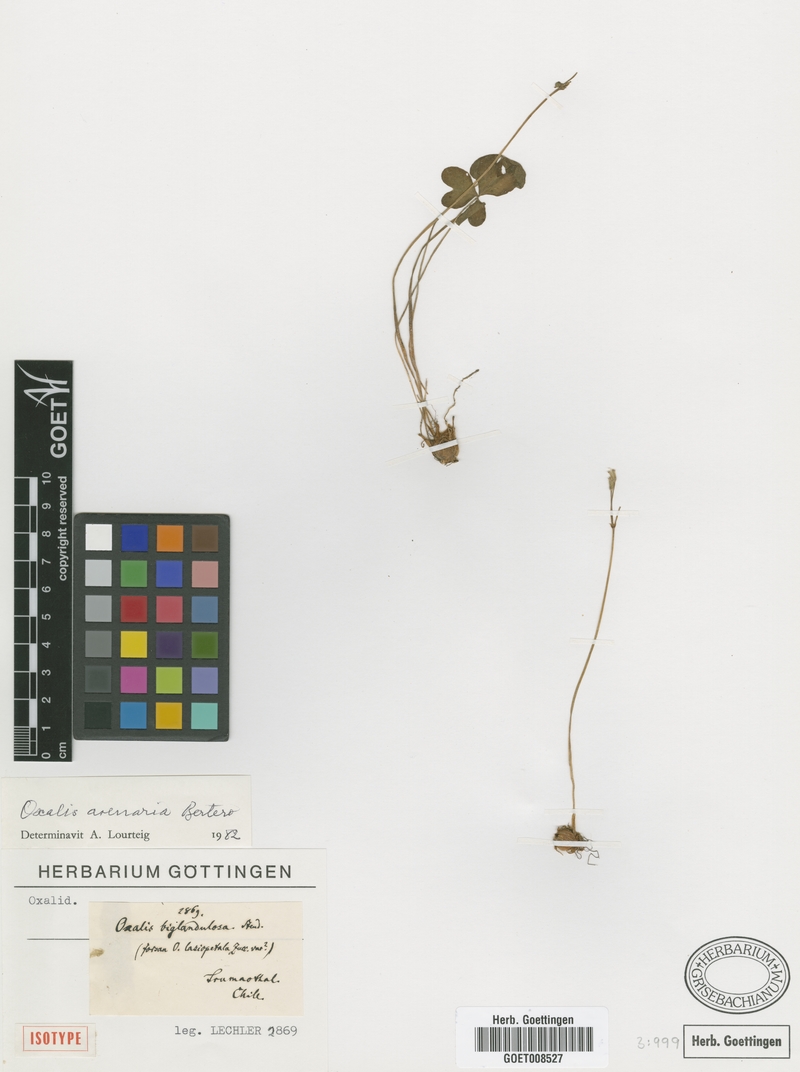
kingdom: Plantae
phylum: Tracheophyta
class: Magnoliopsida
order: Oxalidales
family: Oxalidaceae
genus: Oxalis
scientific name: Oxalis arenaria
